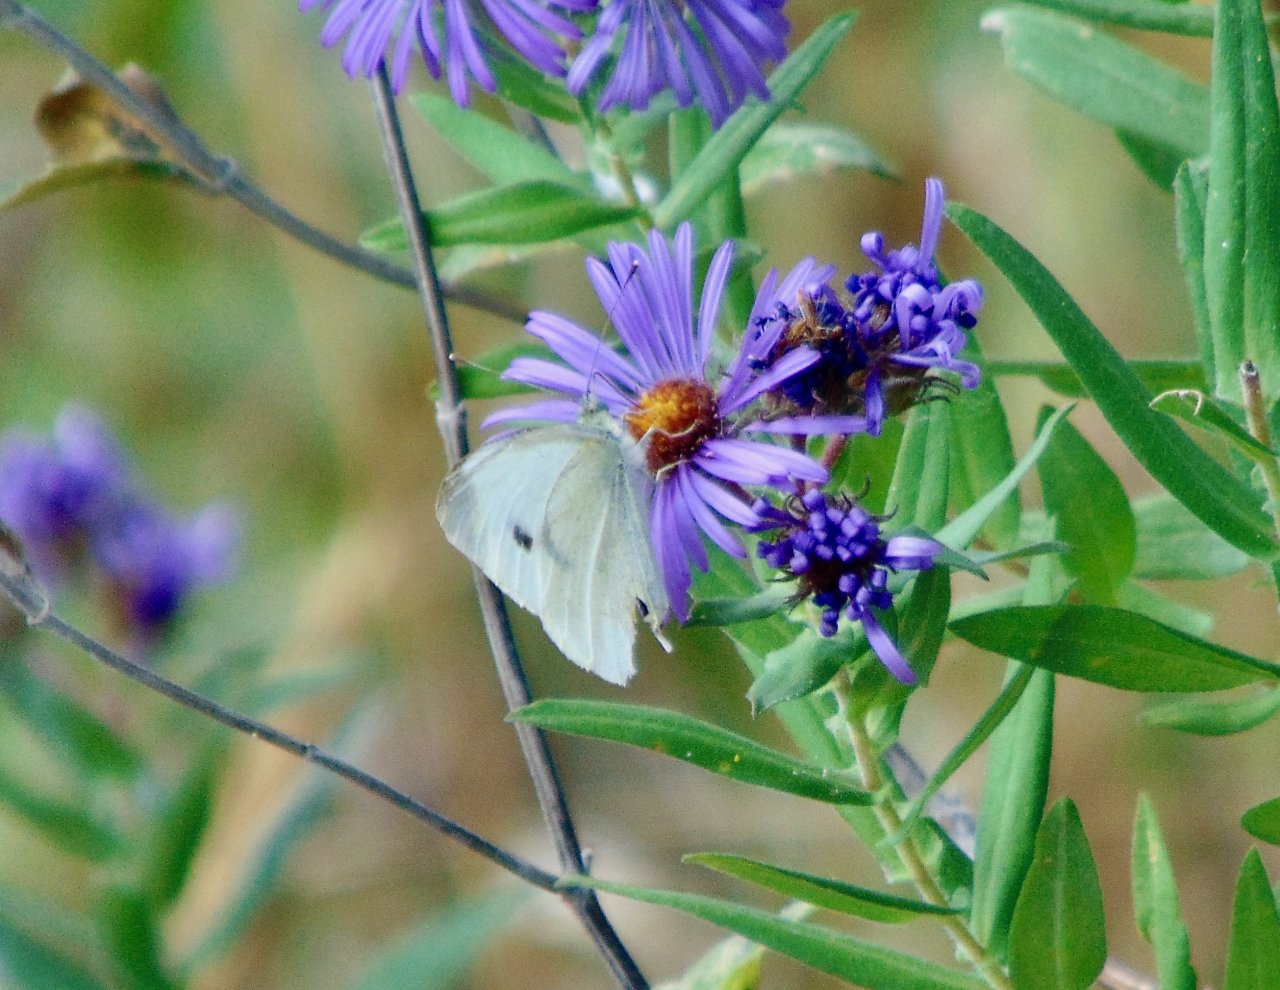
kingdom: Animalia
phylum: Arthropoda
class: Insecta
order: Lepidoptera
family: Pieridae
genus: Pieris
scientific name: Pieris rapae
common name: Cabbage White
